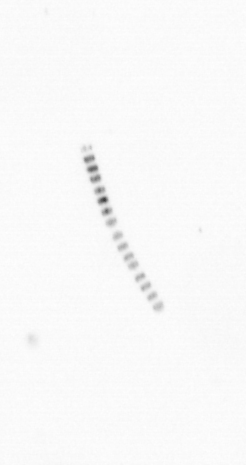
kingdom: Chromista
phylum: Ochrophyta
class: Bacillariophyceae
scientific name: Bacillariophyceae
